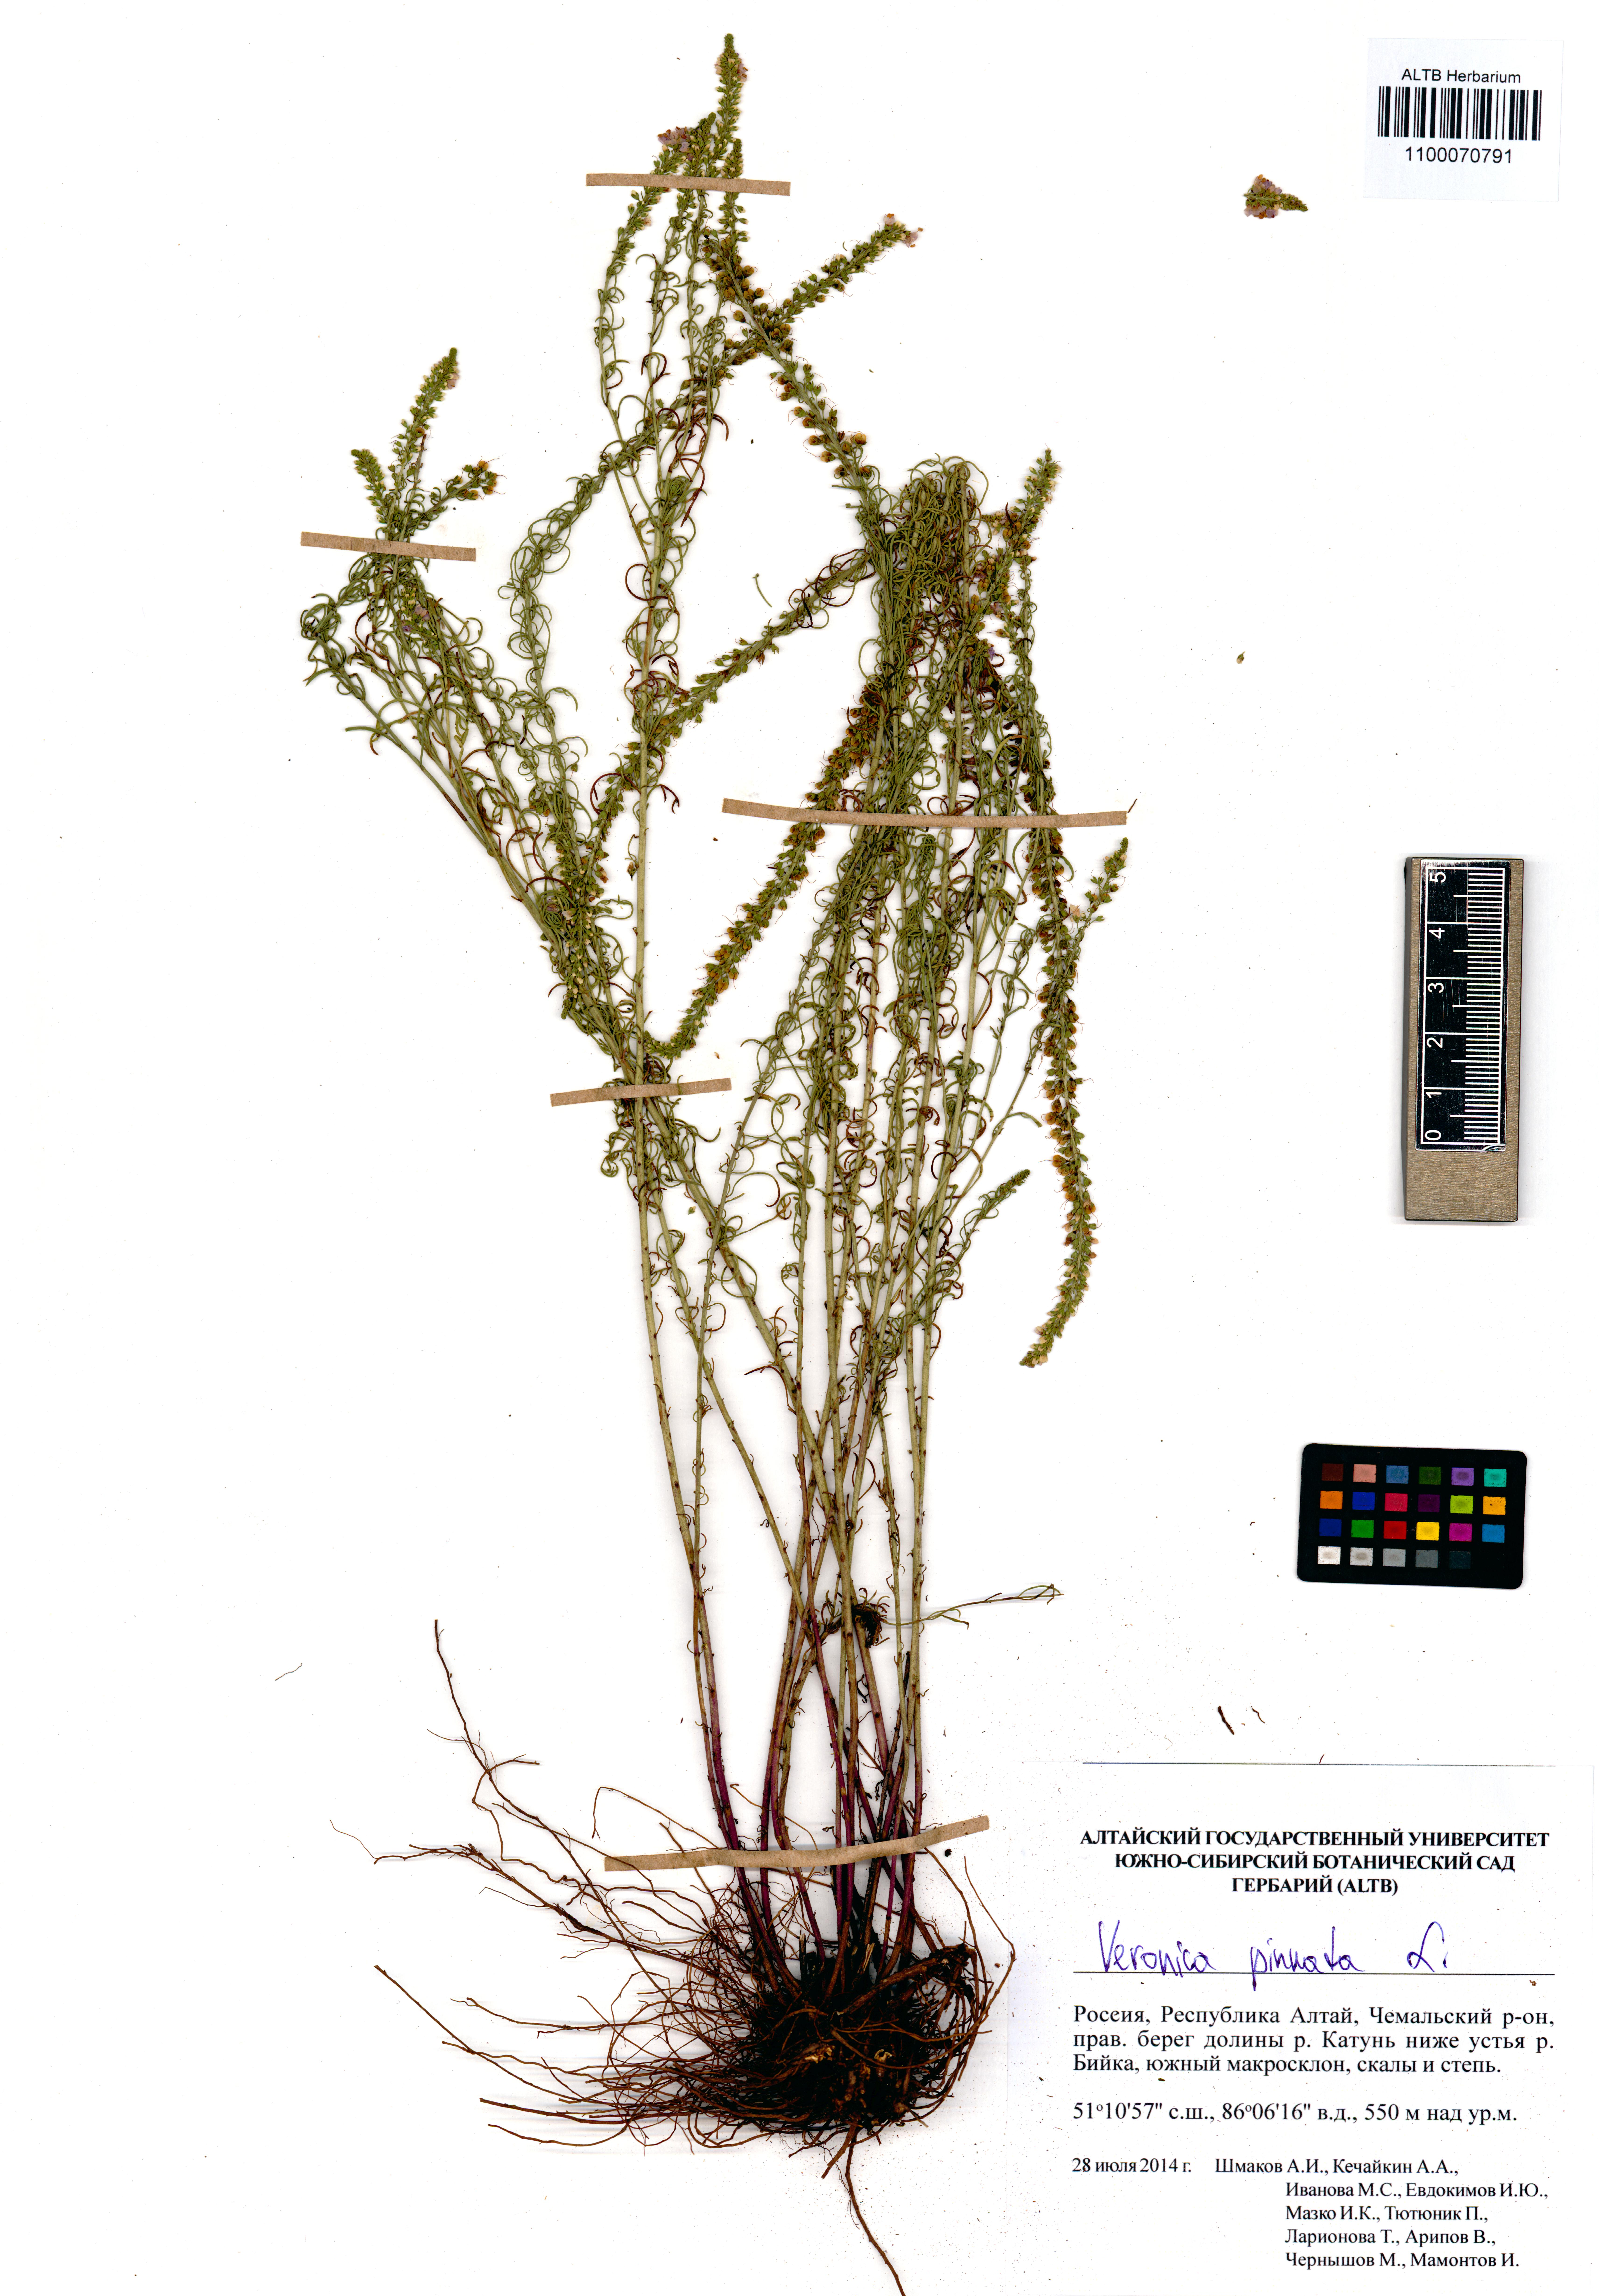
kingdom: Plantae
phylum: Tracheophyta
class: Magnoliopsida
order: Lamiales
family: Plantaginaceae
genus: Veronica
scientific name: Veronica pinnata
